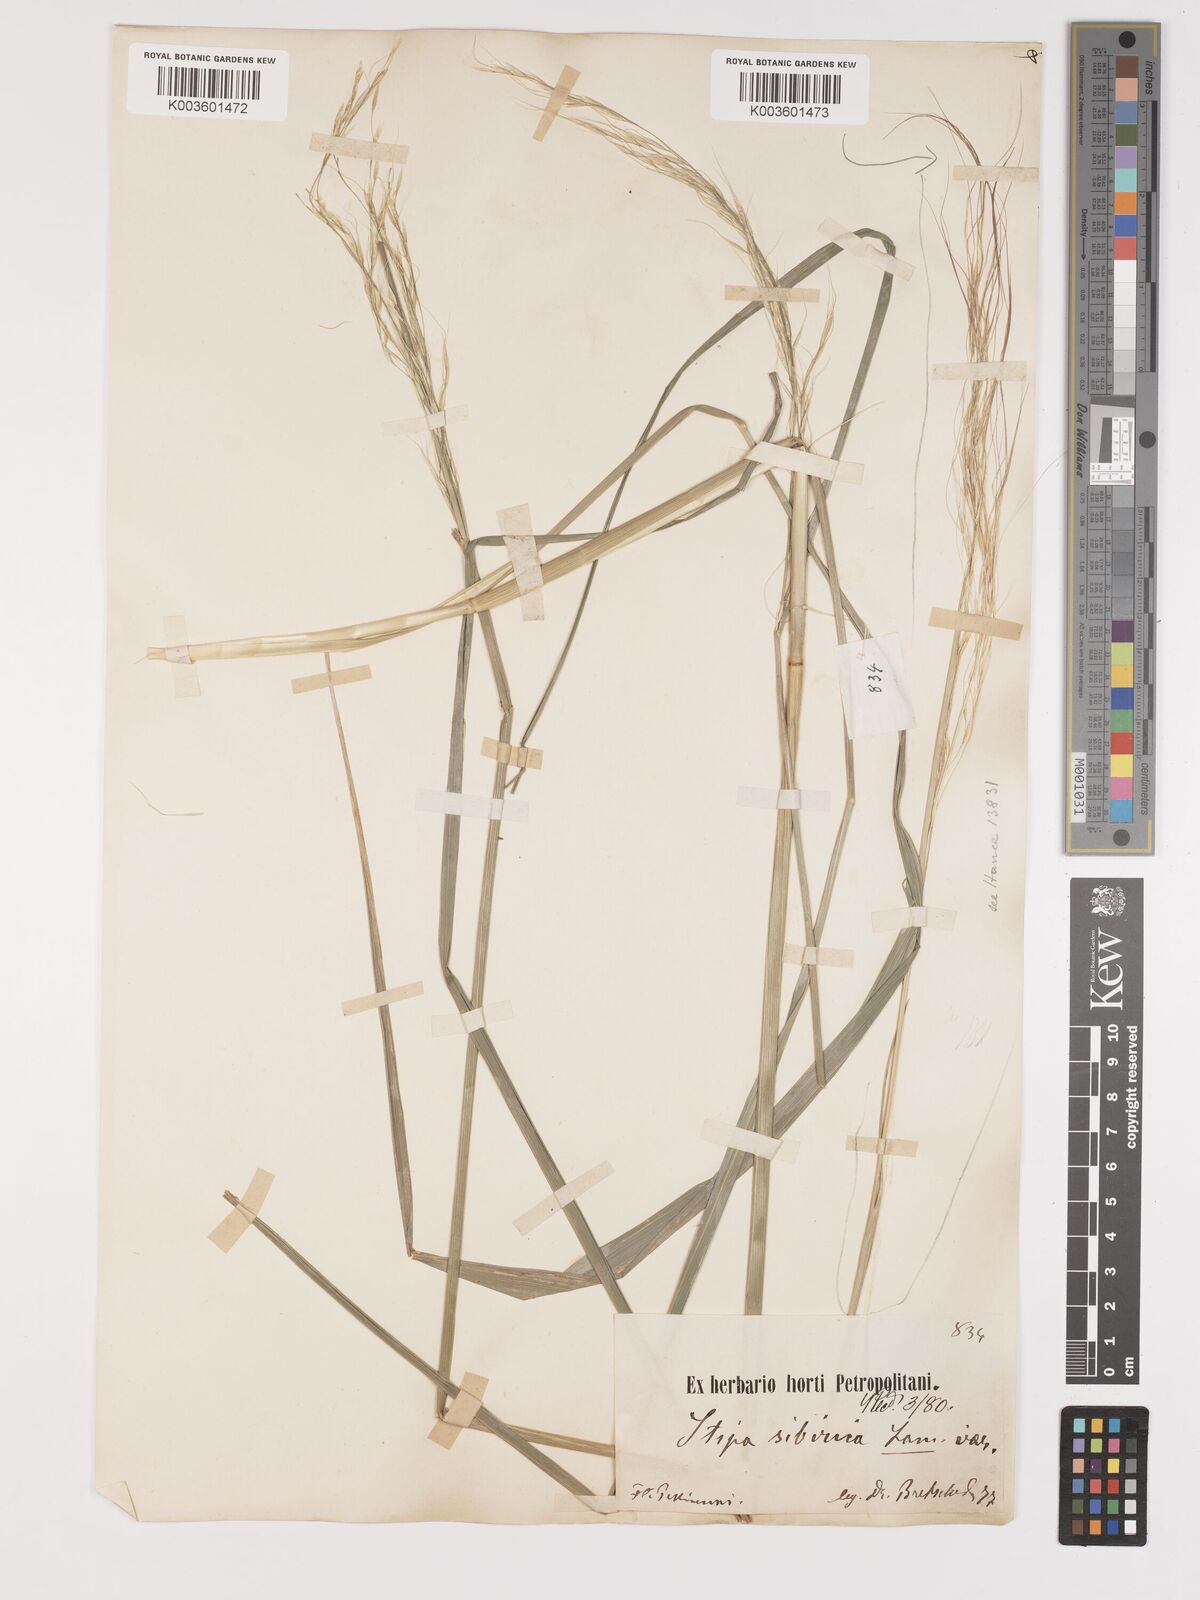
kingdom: Plantae
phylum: Tracheophyta
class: Liliopsida
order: Poales
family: Poaceae
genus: Achnatherum
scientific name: Achnatherum pekinense
